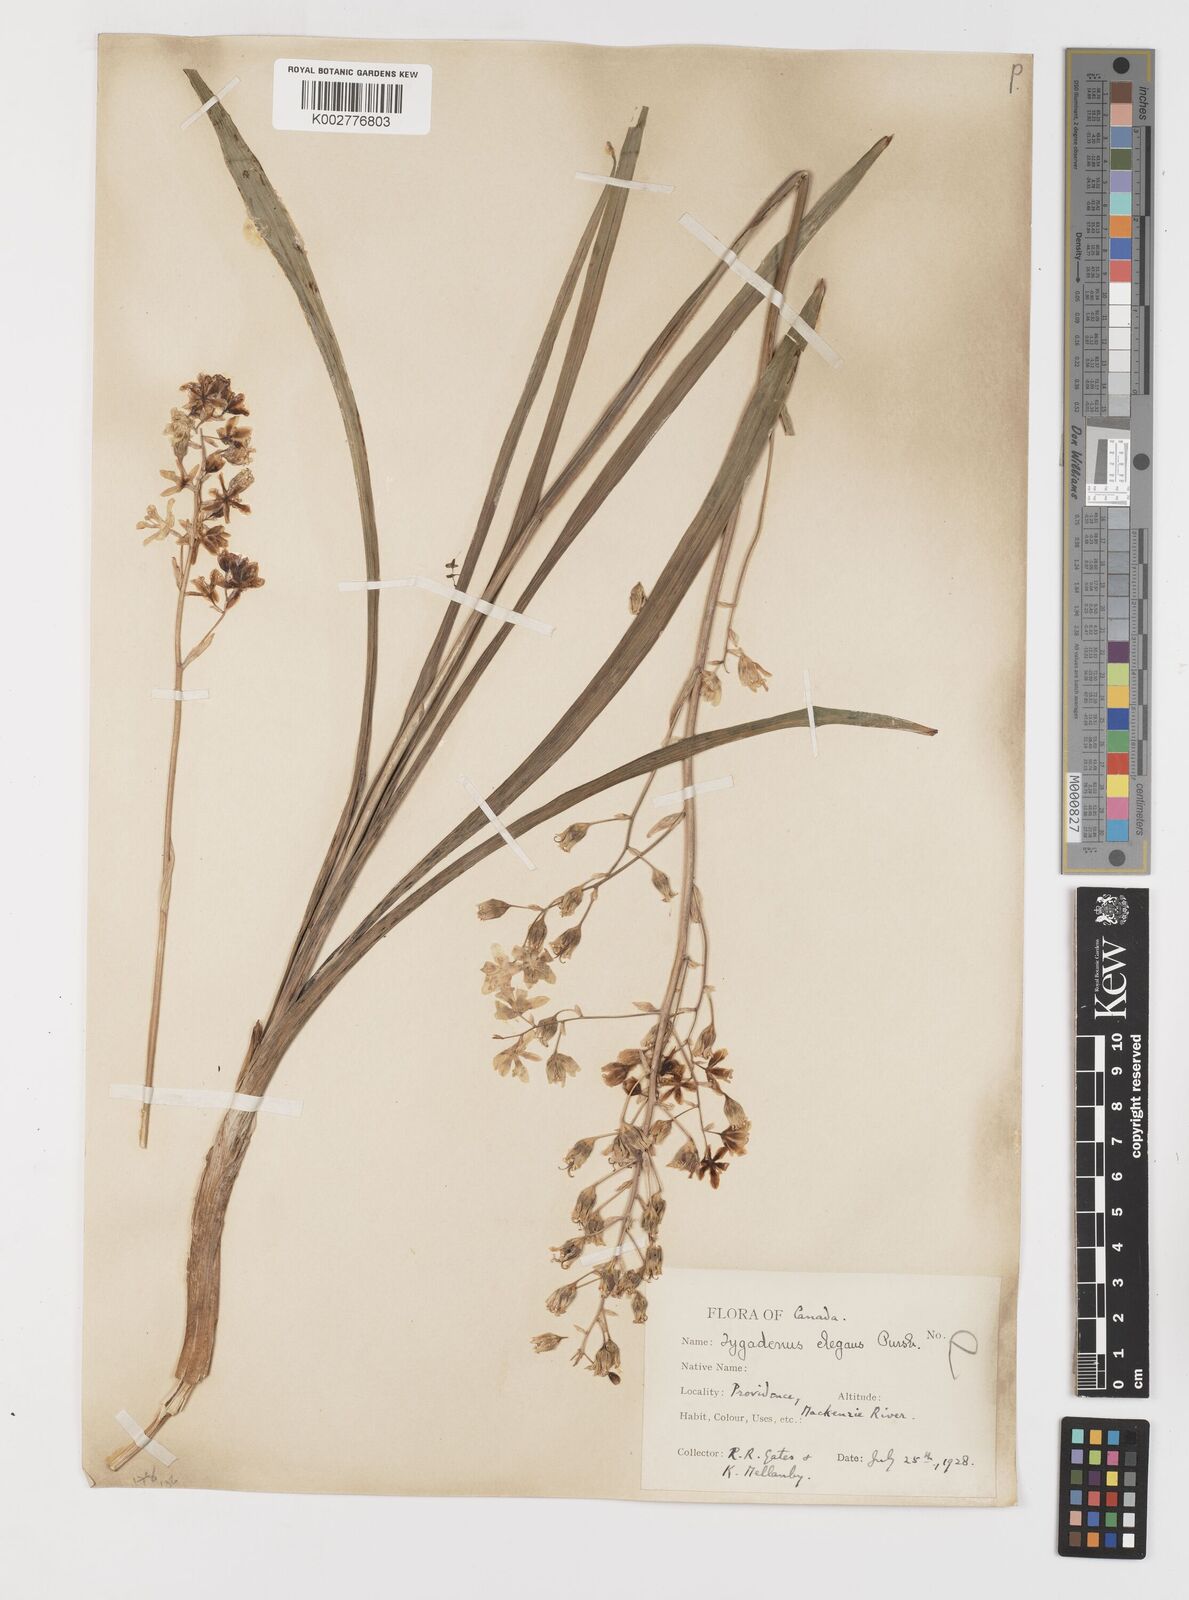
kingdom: Plantae
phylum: Tracheophyta
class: Liliopsida
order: Liliales
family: Melanthiaceae
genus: Anticlea
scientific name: Anticlea elegans
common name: Mountain death camas
